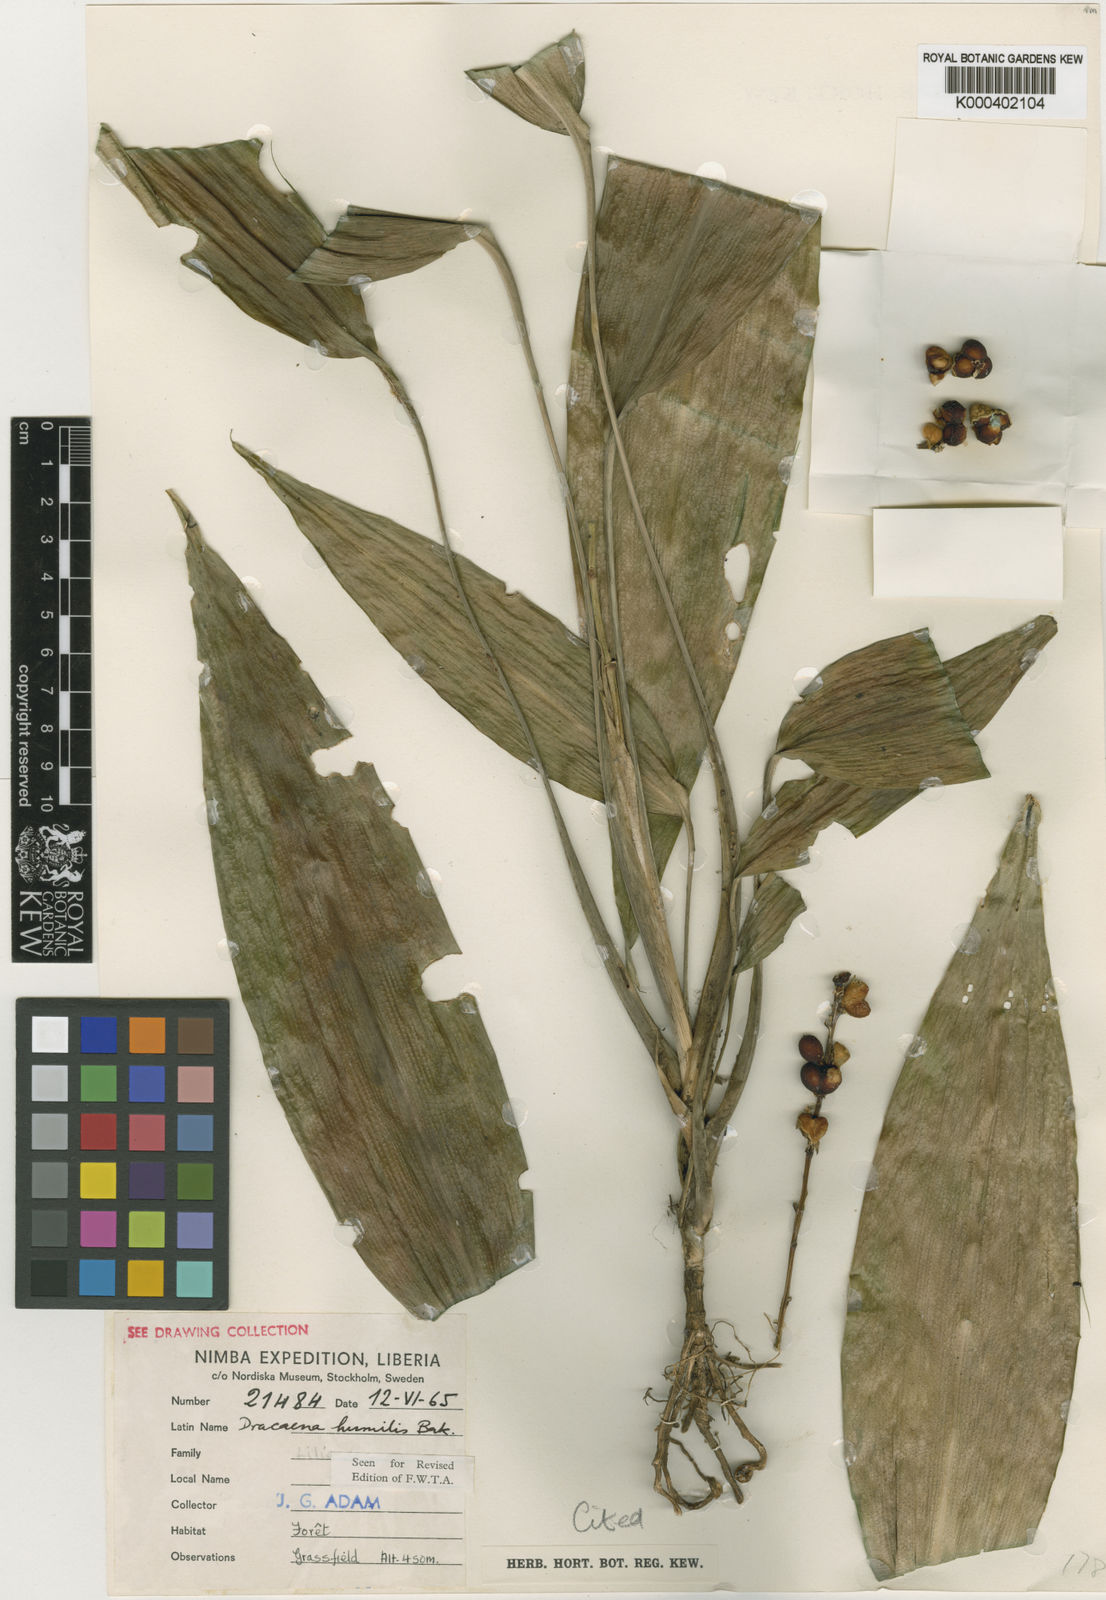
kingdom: Plantae
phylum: Tracheophyta
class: Liliopsida
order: Asparagales
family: Asparagaceae
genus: Dracaena
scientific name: Dracaena aubryana
